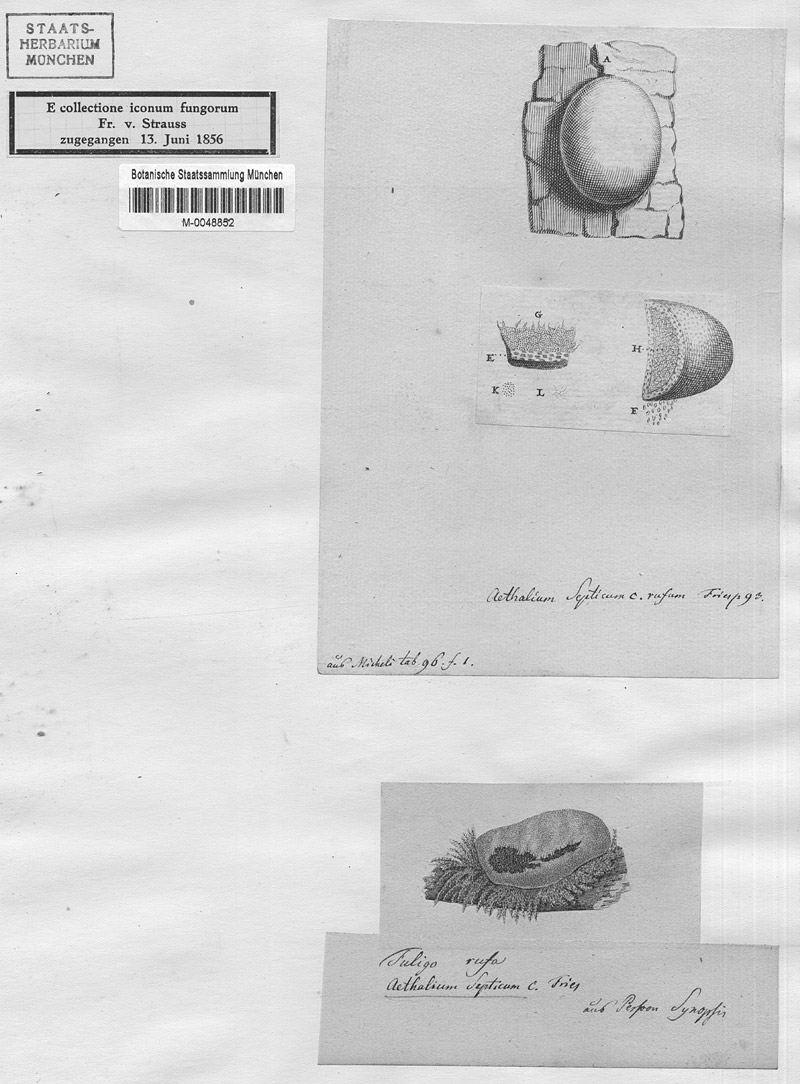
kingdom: Protozoa
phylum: Mycetozoa
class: Myxomycetes
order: Physarales
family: Physaraceae
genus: Fuligo
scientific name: Fuligo septica
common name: Dog vomit slime mold
